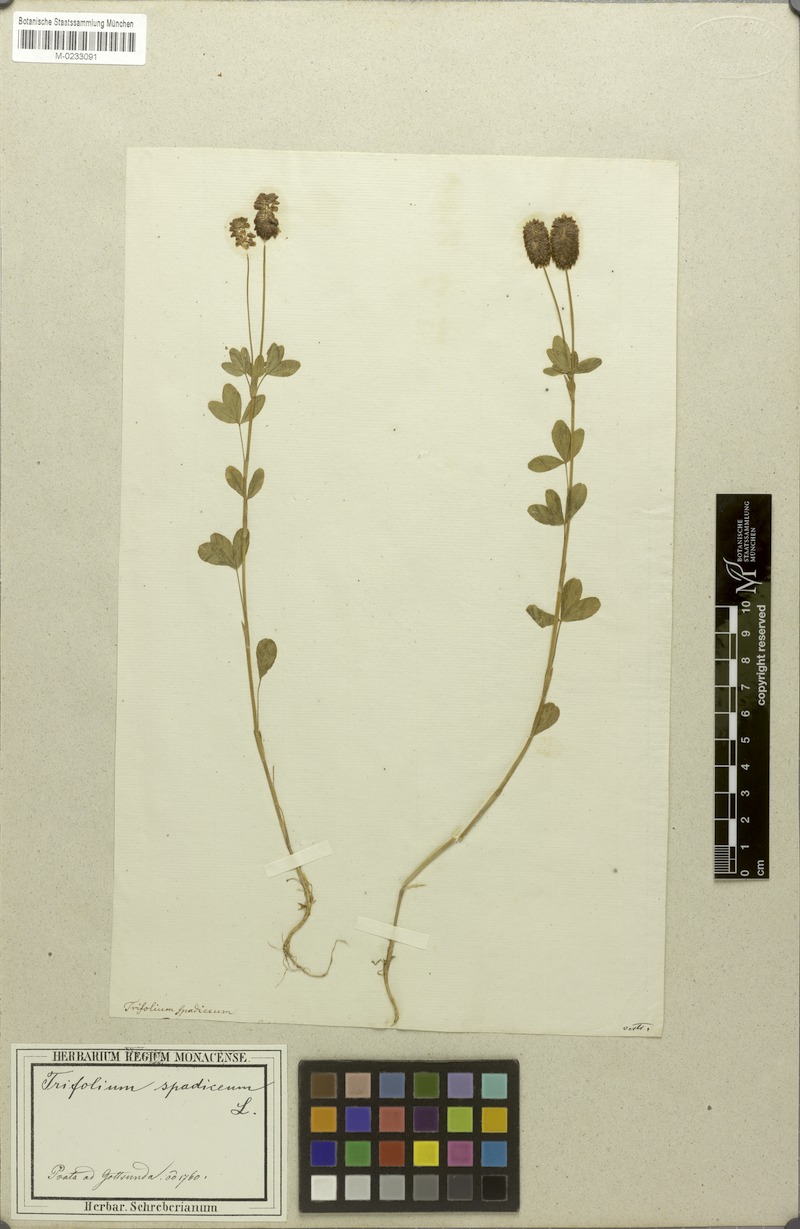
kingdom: Plantae
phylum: Tracheophyta
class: Magnoliopsida
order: Fabales
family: Fabaceae
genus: Trifolium
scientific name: Trifolium spadiceum
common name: Brown moor clover
